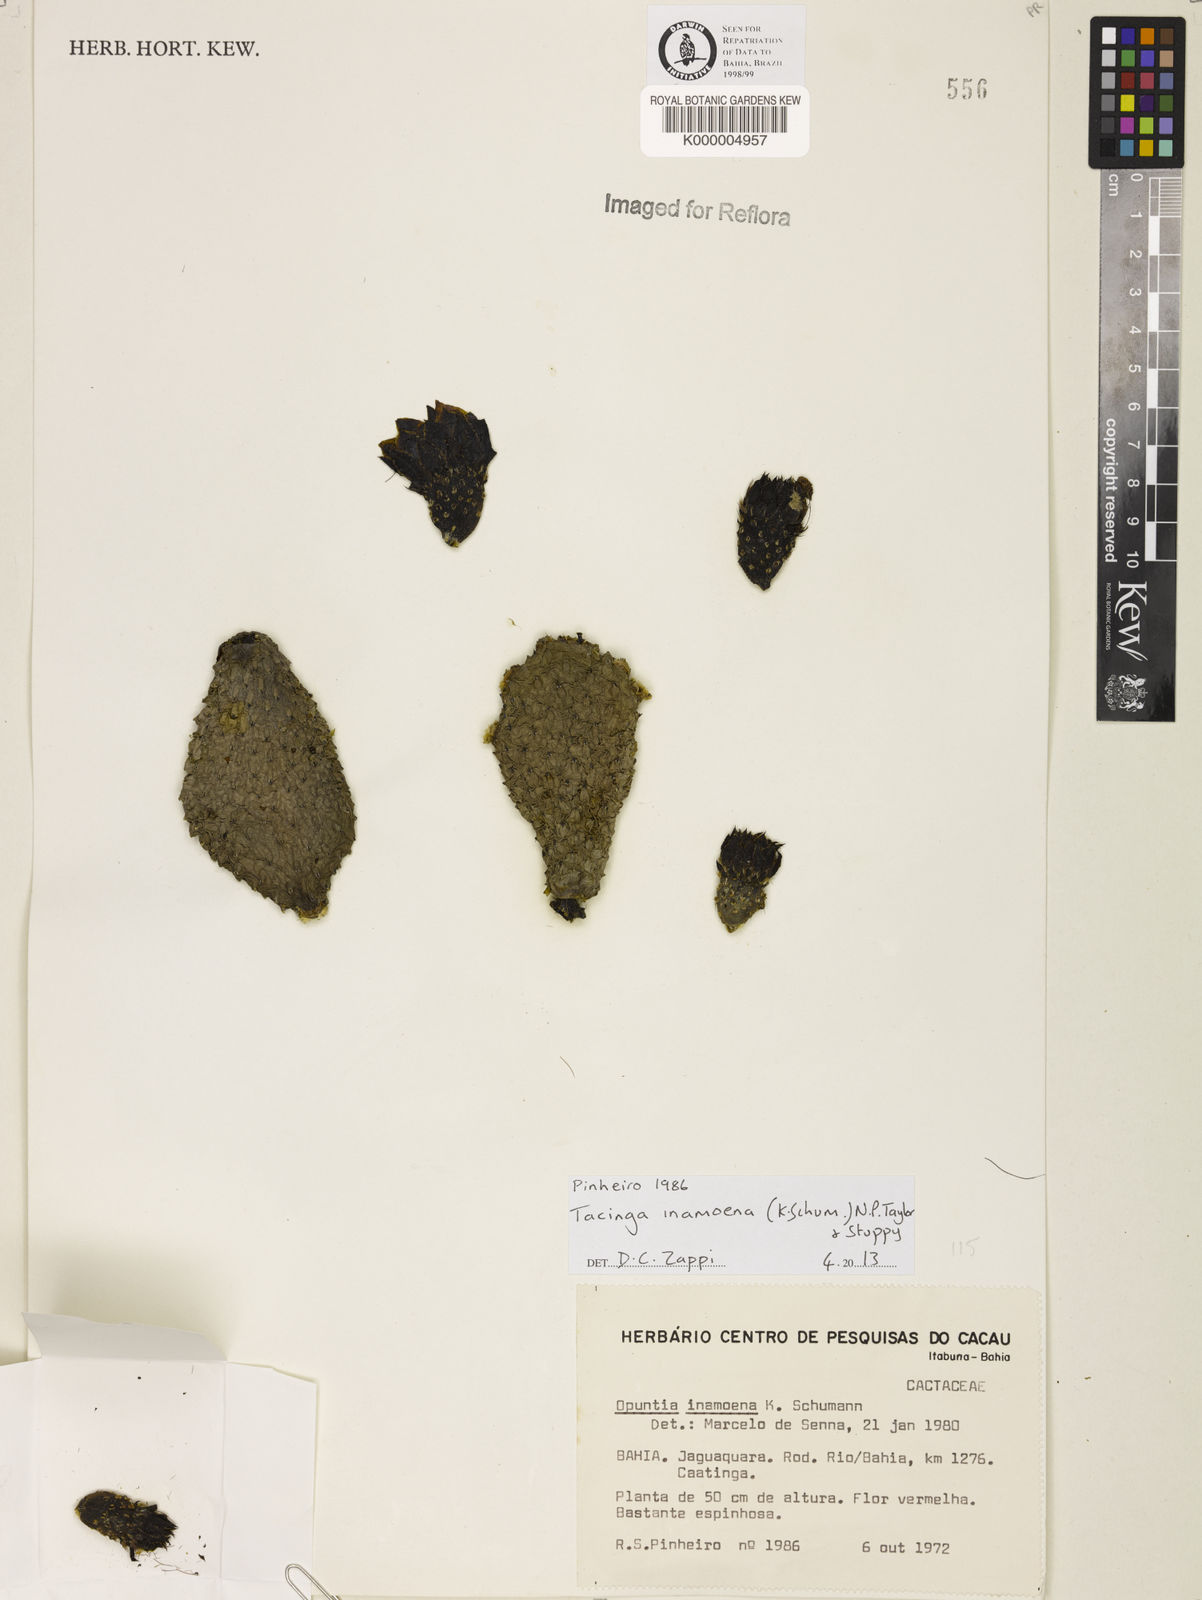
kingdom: Plantae
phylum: Tracheophyta
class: Magnoliopsida
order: Caryophyllales
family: Cactaceae
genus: Tacinga
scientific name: Tacinga inamoena
